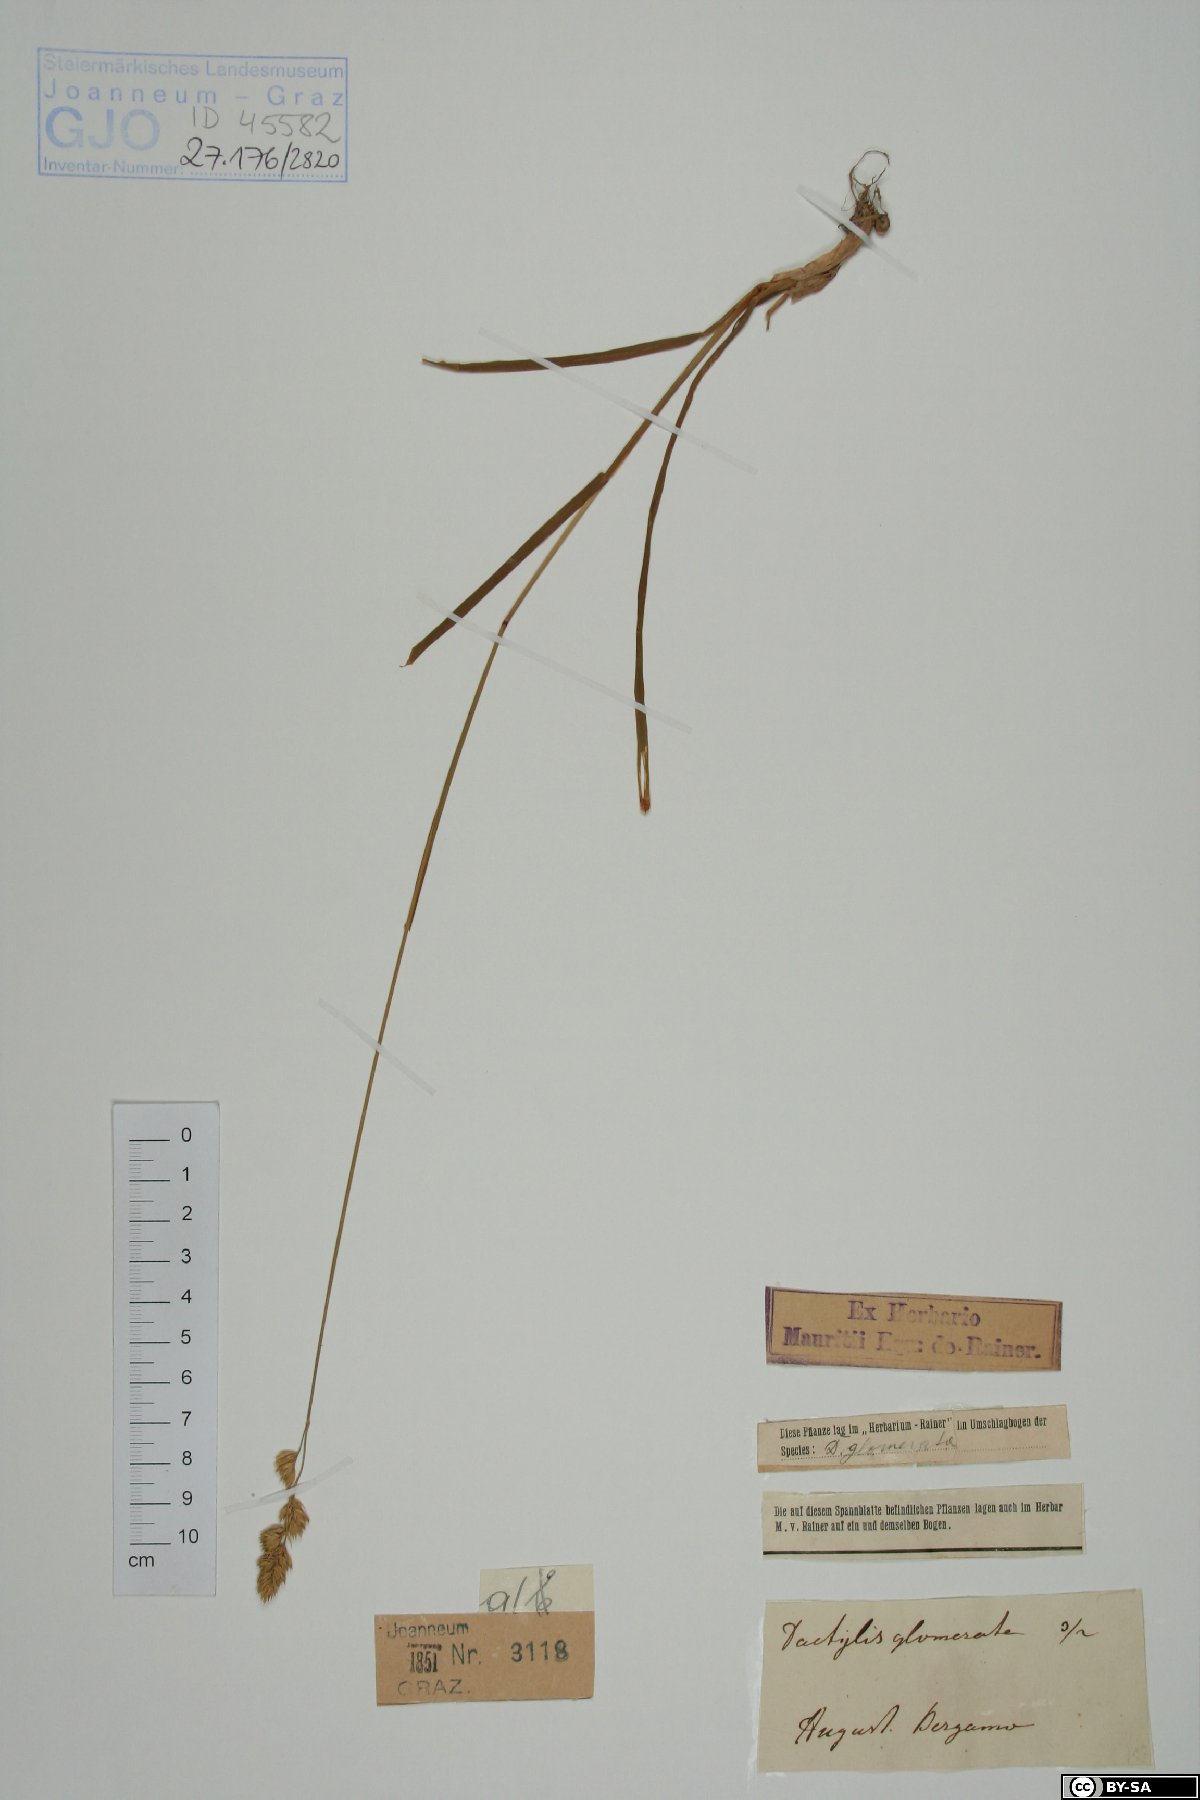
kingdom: Plantae
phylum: Tracheophyta
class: Liliopsida
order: Poales
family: Poaceae
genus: Dactylis
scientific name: Dactylis glomerata
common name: Orchardgrass
